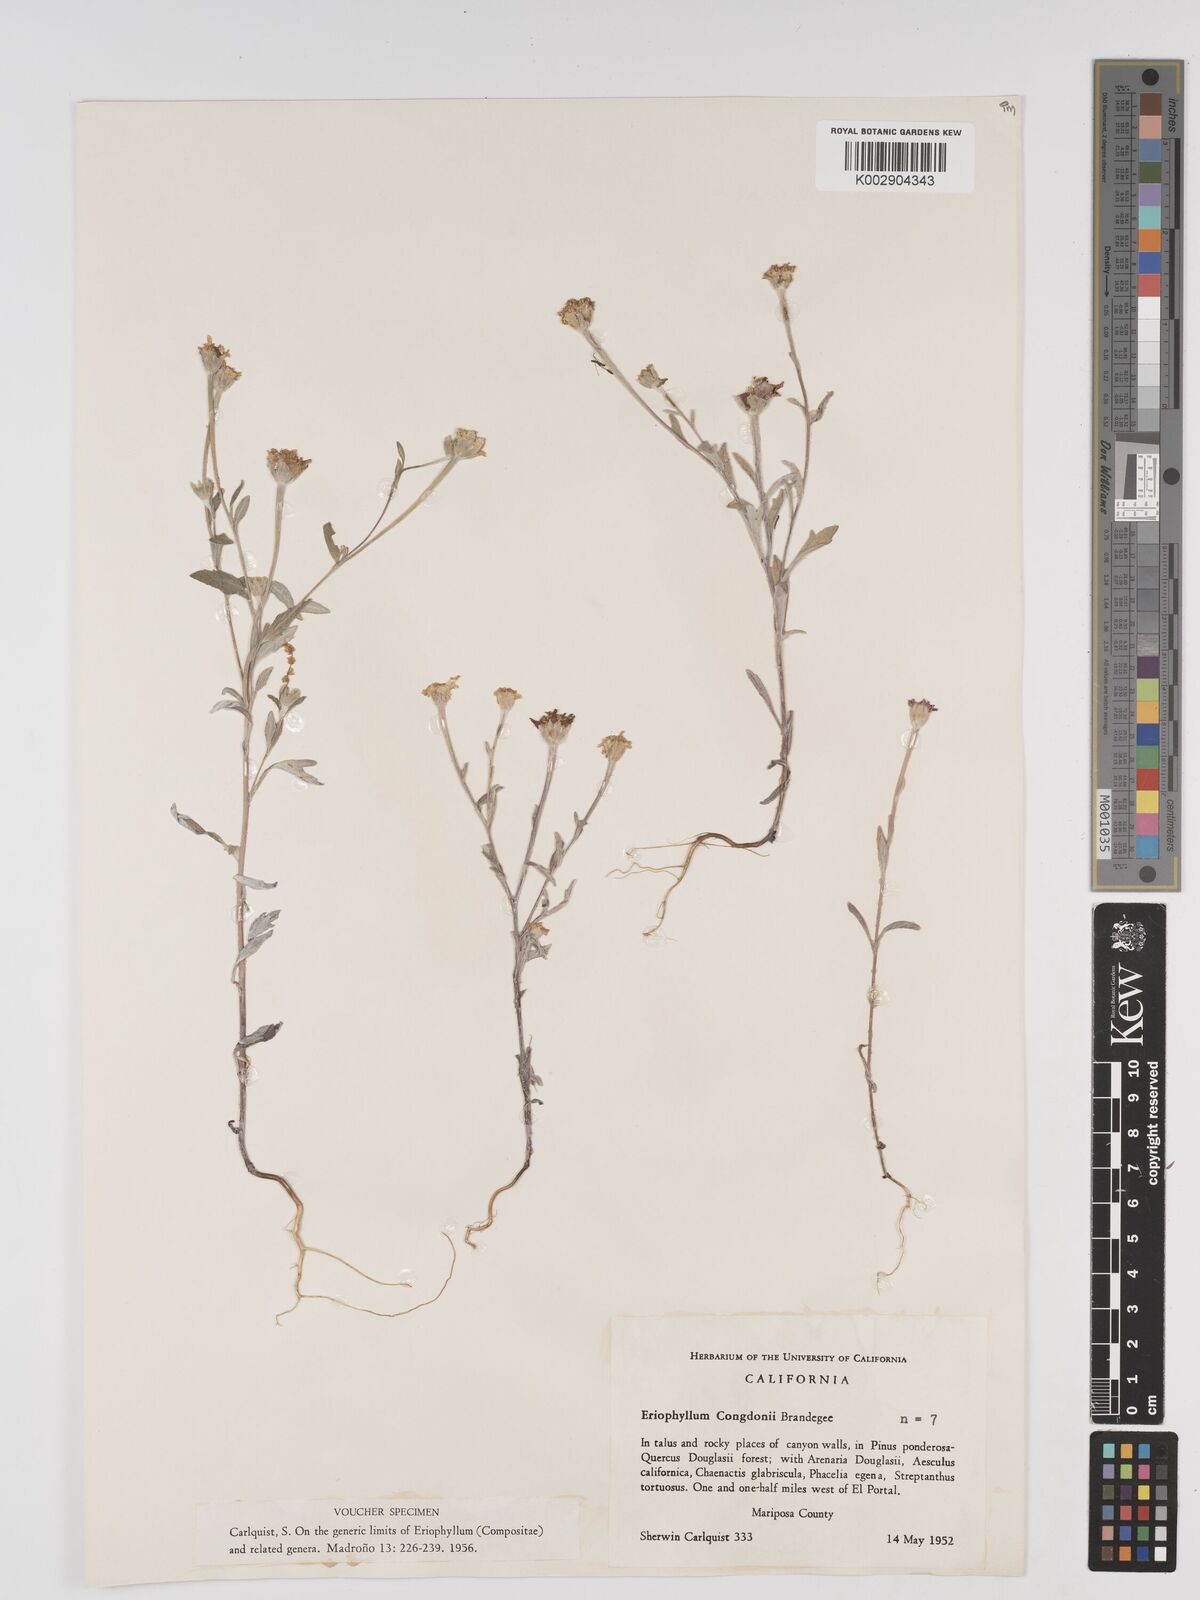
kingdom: Plantae
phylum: Tracheophyta
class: Magnoliopsida
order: Asterales
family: Asteraceae
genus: Eriophyllum
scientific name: Eriophyllum congdonii
